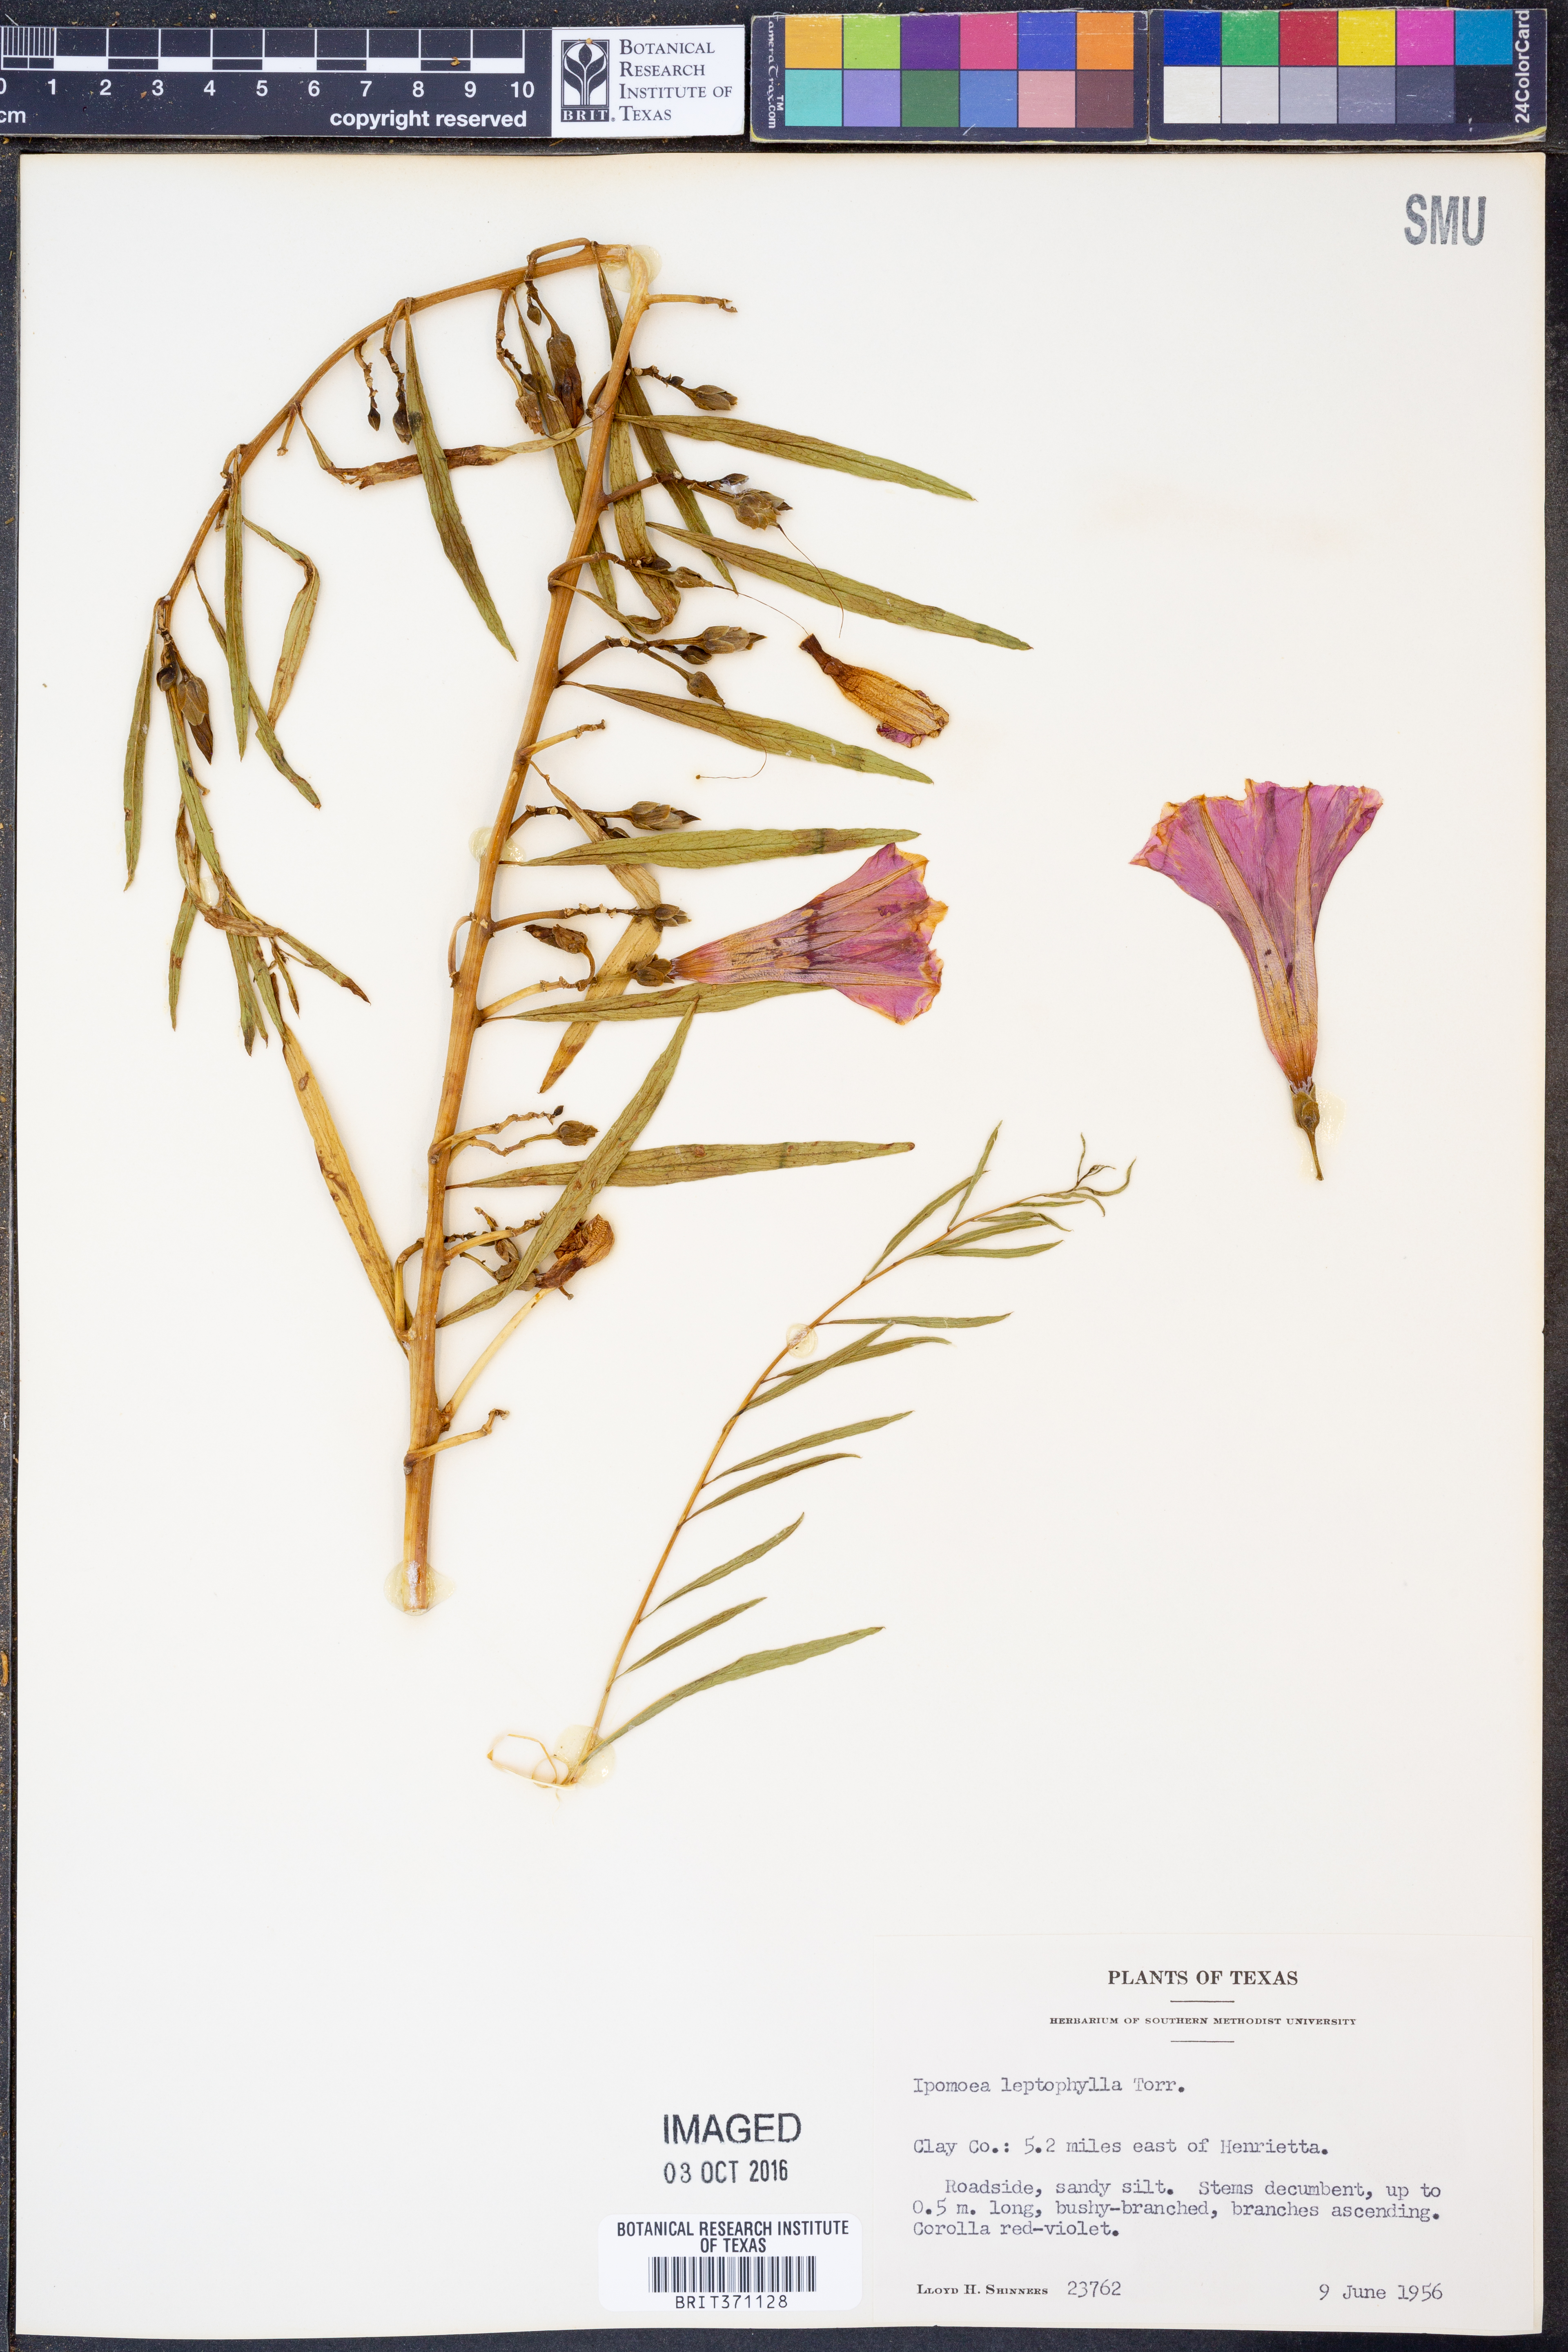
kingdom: Plantae
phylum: Tracheophyta
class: Magnoliopsida
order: Solanales
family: Convolvulaceae
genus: Ipomoea
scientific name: Ipomoea leptophylla
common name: Bush moonflower
